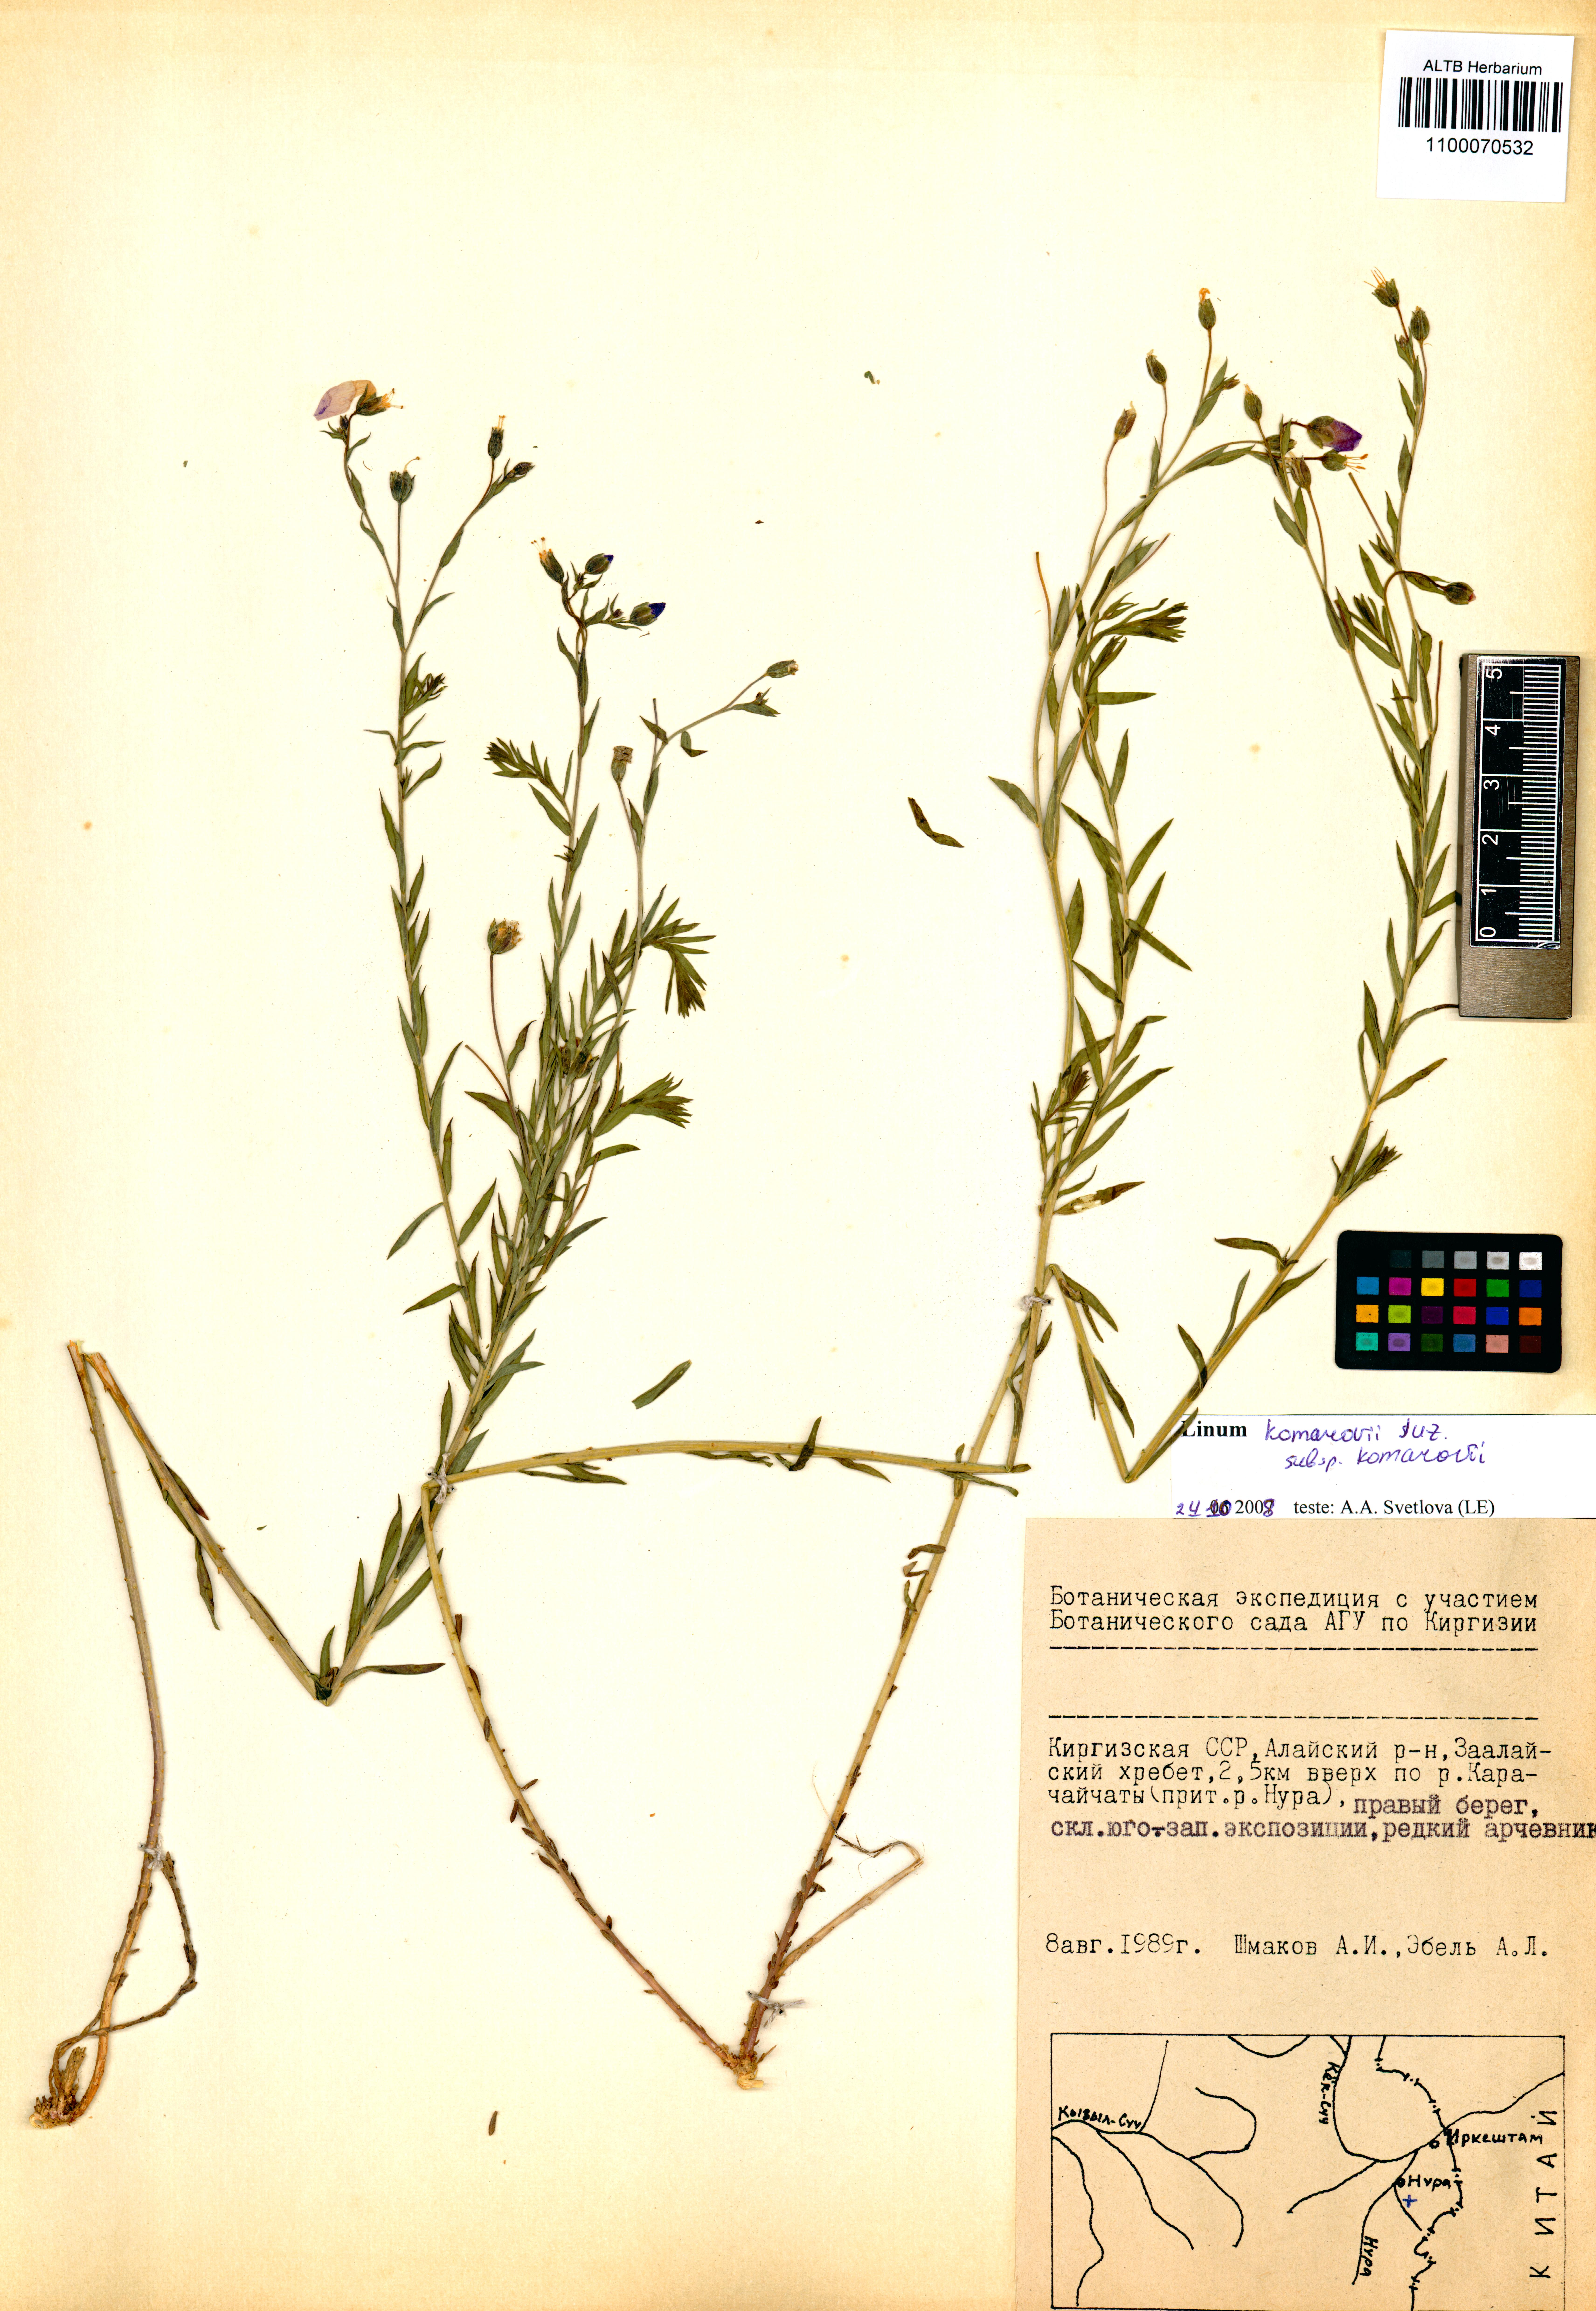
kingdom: Plantae
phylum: Tracheophyta
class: Magnoliopsida
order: Malpighiales
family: Linaceae
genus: Linum
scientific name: Linum komarovii
